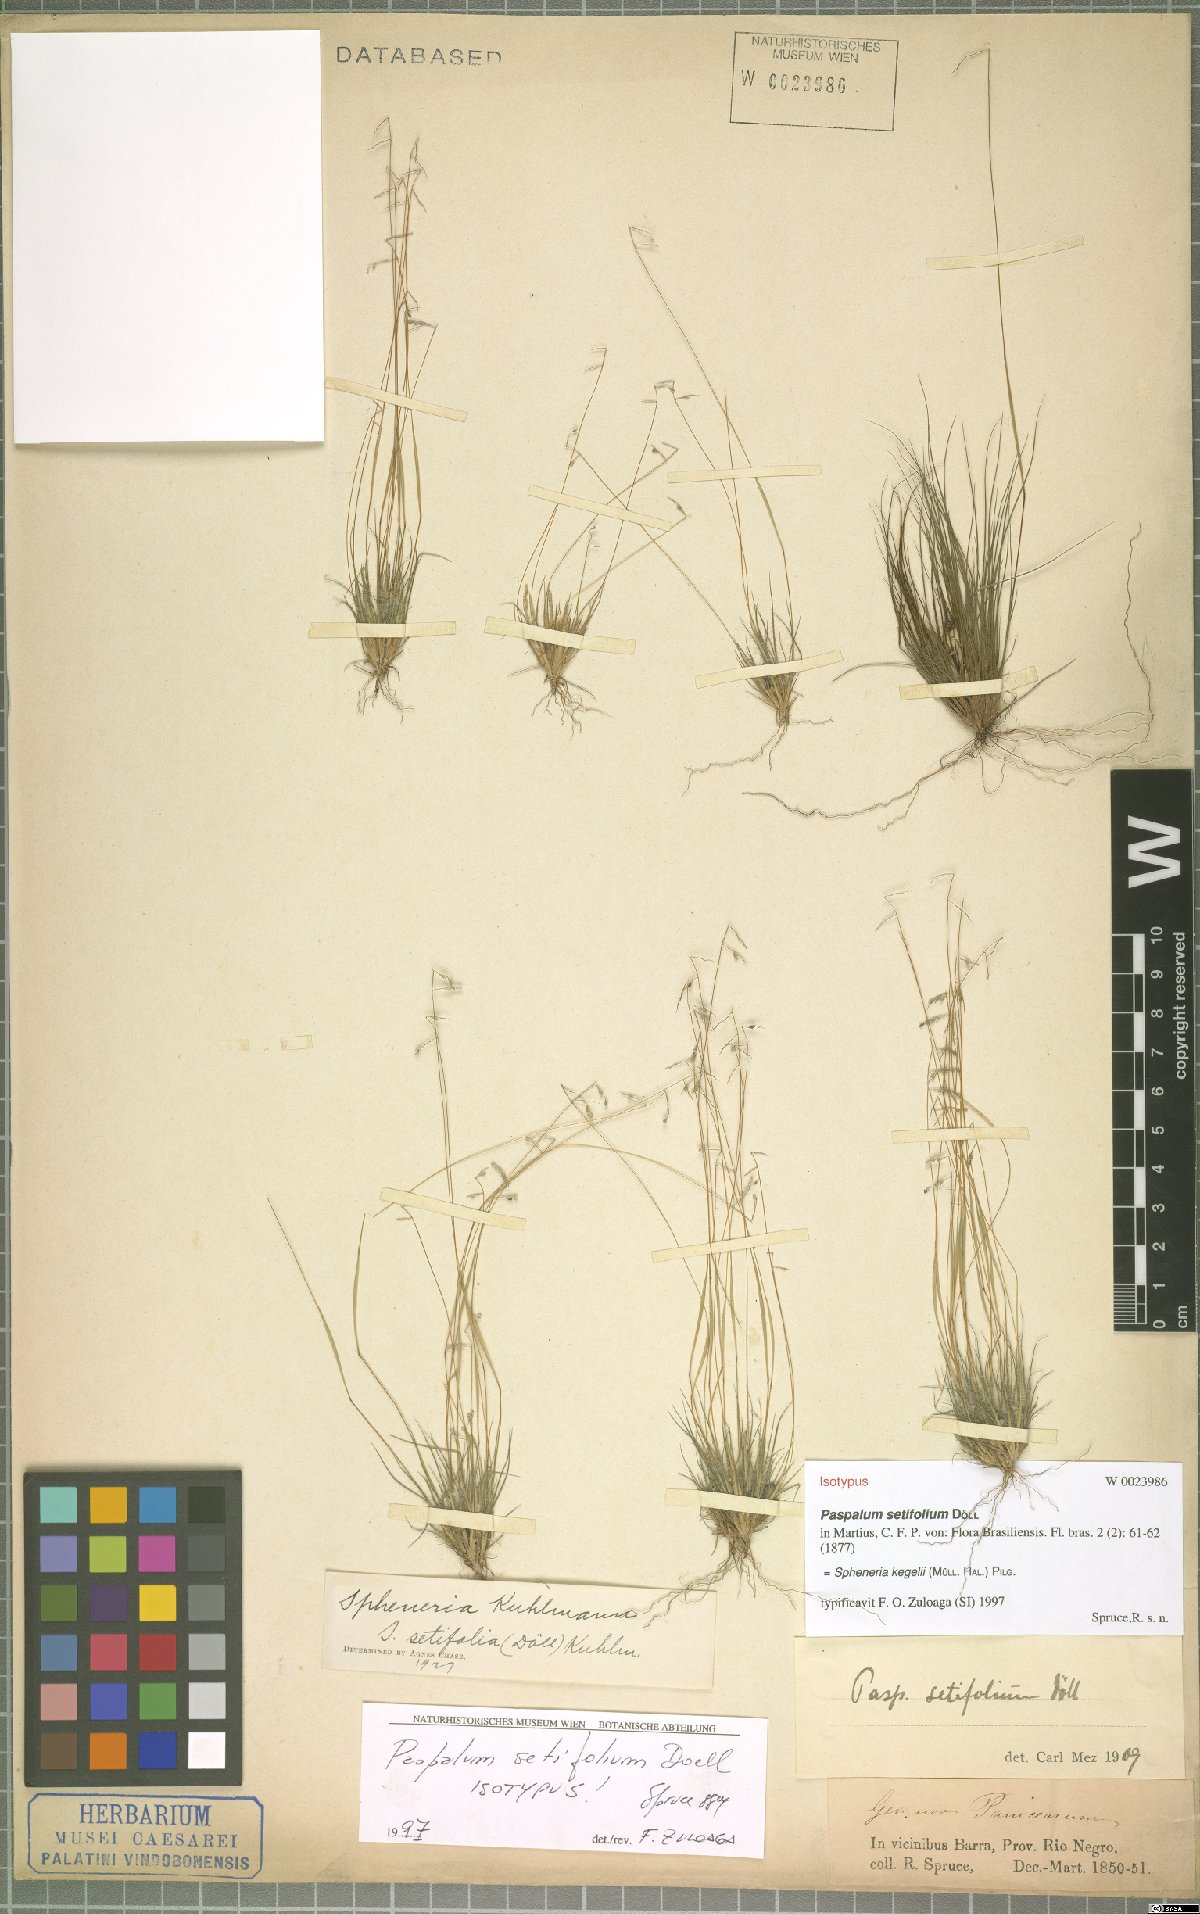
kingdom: Plantae
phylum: Tracheophyta
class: Liliopsida
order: Poales
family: Poaceae
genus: Spheneria
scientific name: Spheneria kegelii
